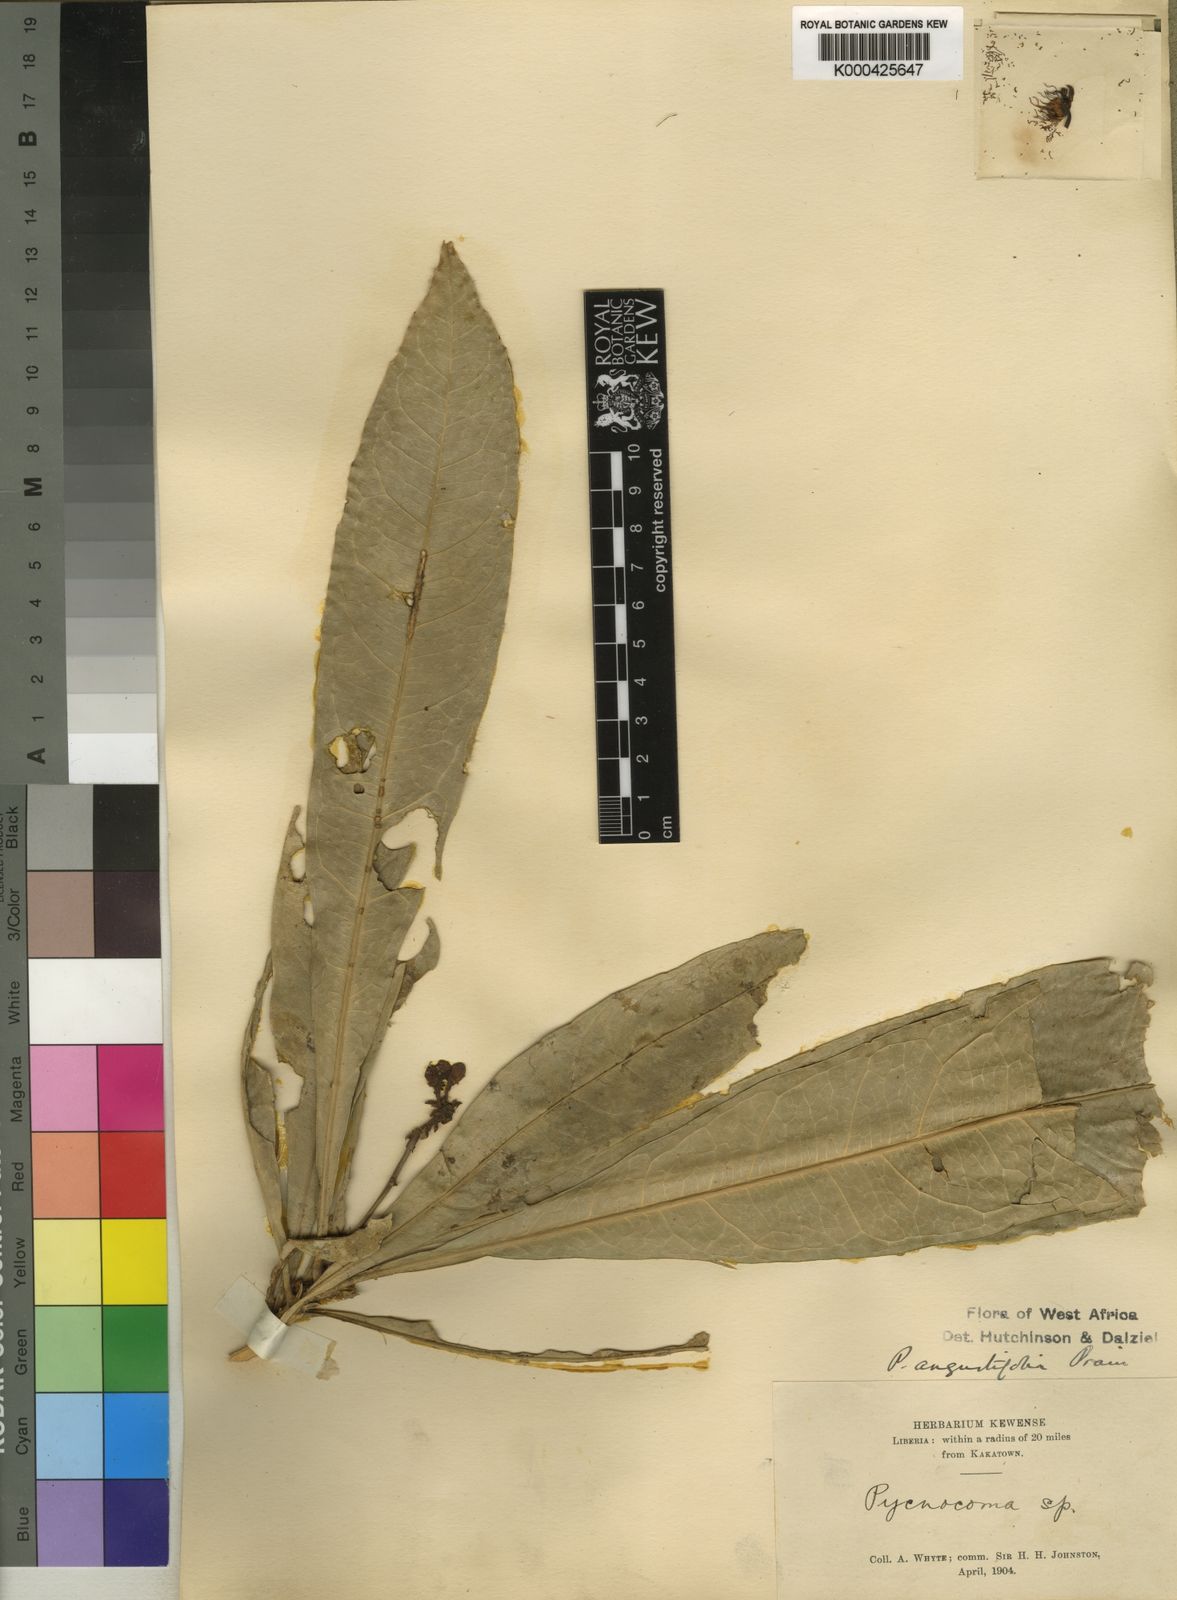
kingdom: Plantae
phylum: Tracheophyta
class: Magnoliopsida
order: Malpighiales
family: Euphorbiaceae
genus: Pycnocoma
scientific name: Pycnocoma angustifolia
